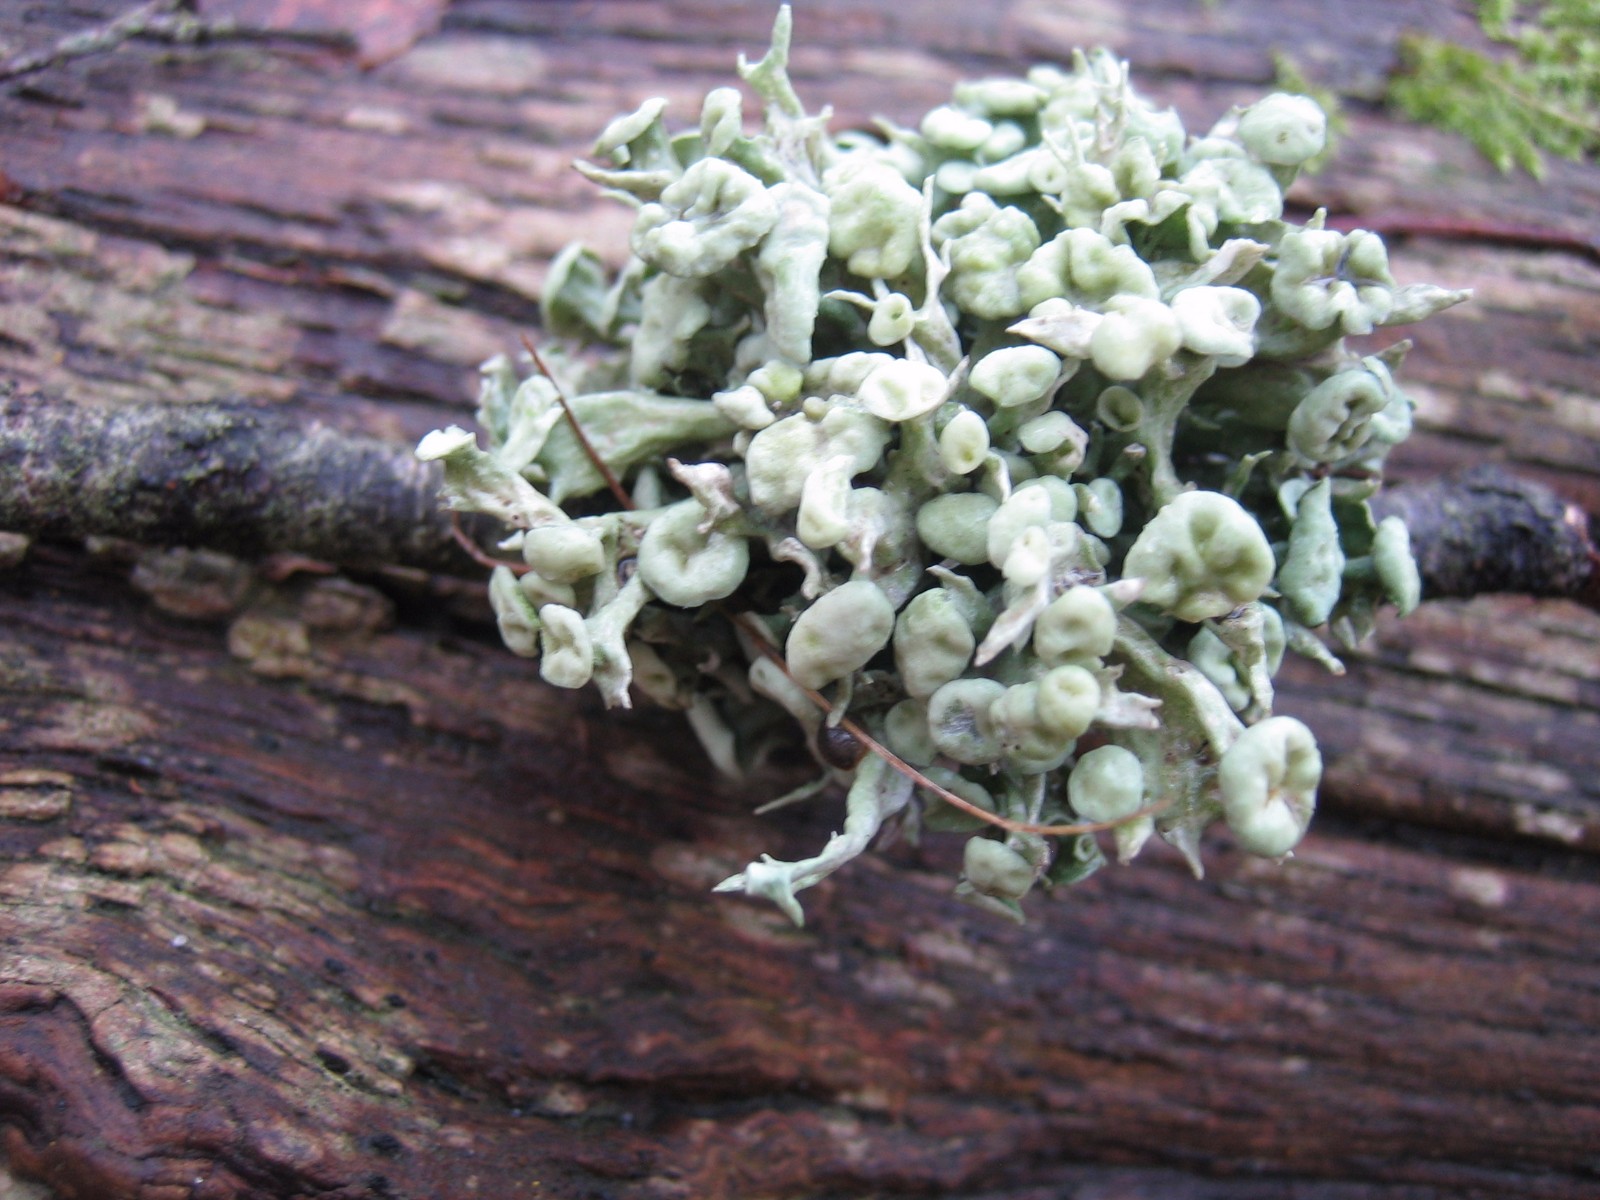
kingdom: Fungi
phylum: Ascomycota
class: Lecanoromycetes
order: Lecanorales
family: Ramalinaceae
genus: Ramalina
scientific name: Ramalina fastigiata
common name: tue-grenlav
